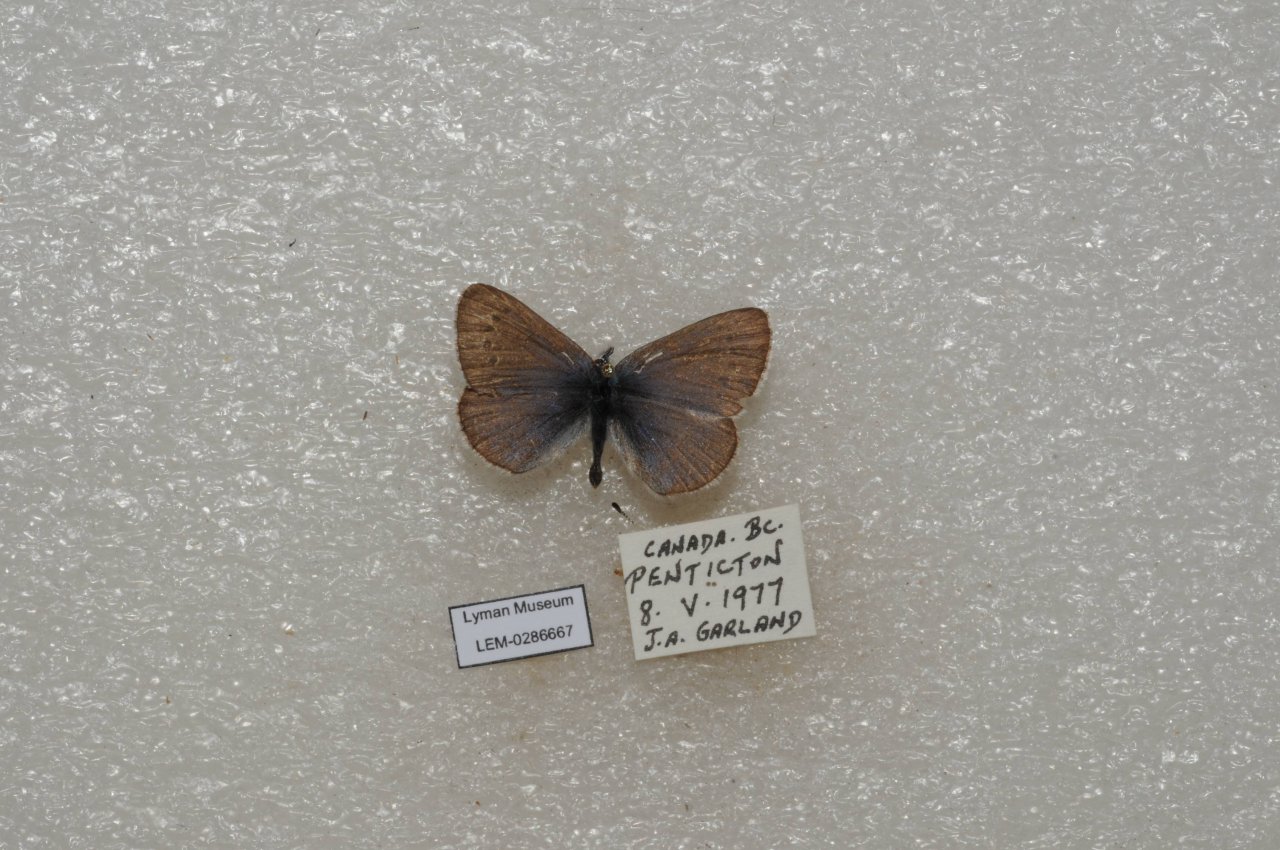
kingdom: Animalia
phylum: Arthropoda
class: Insecta
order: Lepidoptera
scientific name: Lepidoptera
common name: Butterflies
